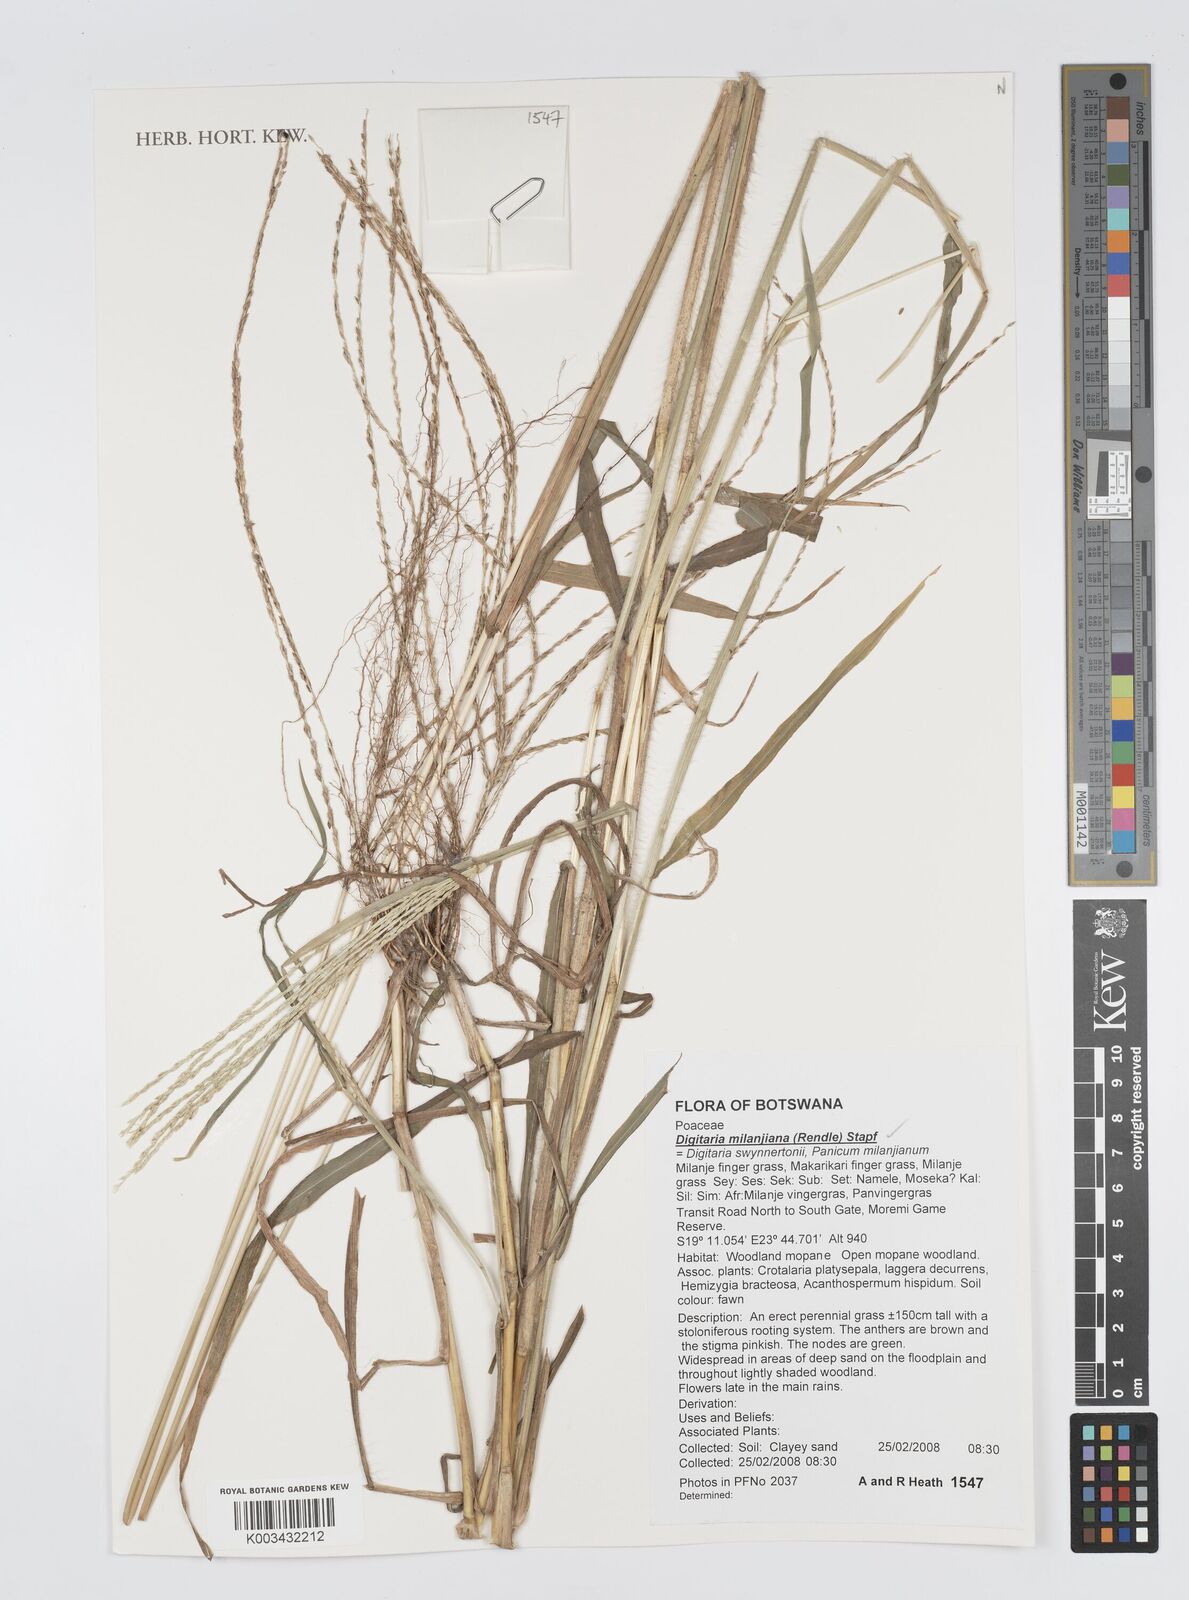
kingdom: Plantae
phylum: Tracheophyta
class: Liliopsida
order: Poales
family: Poaceae
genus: Digitaria
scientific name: Digitaria milanjiana
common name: Madagascar crabgrass
